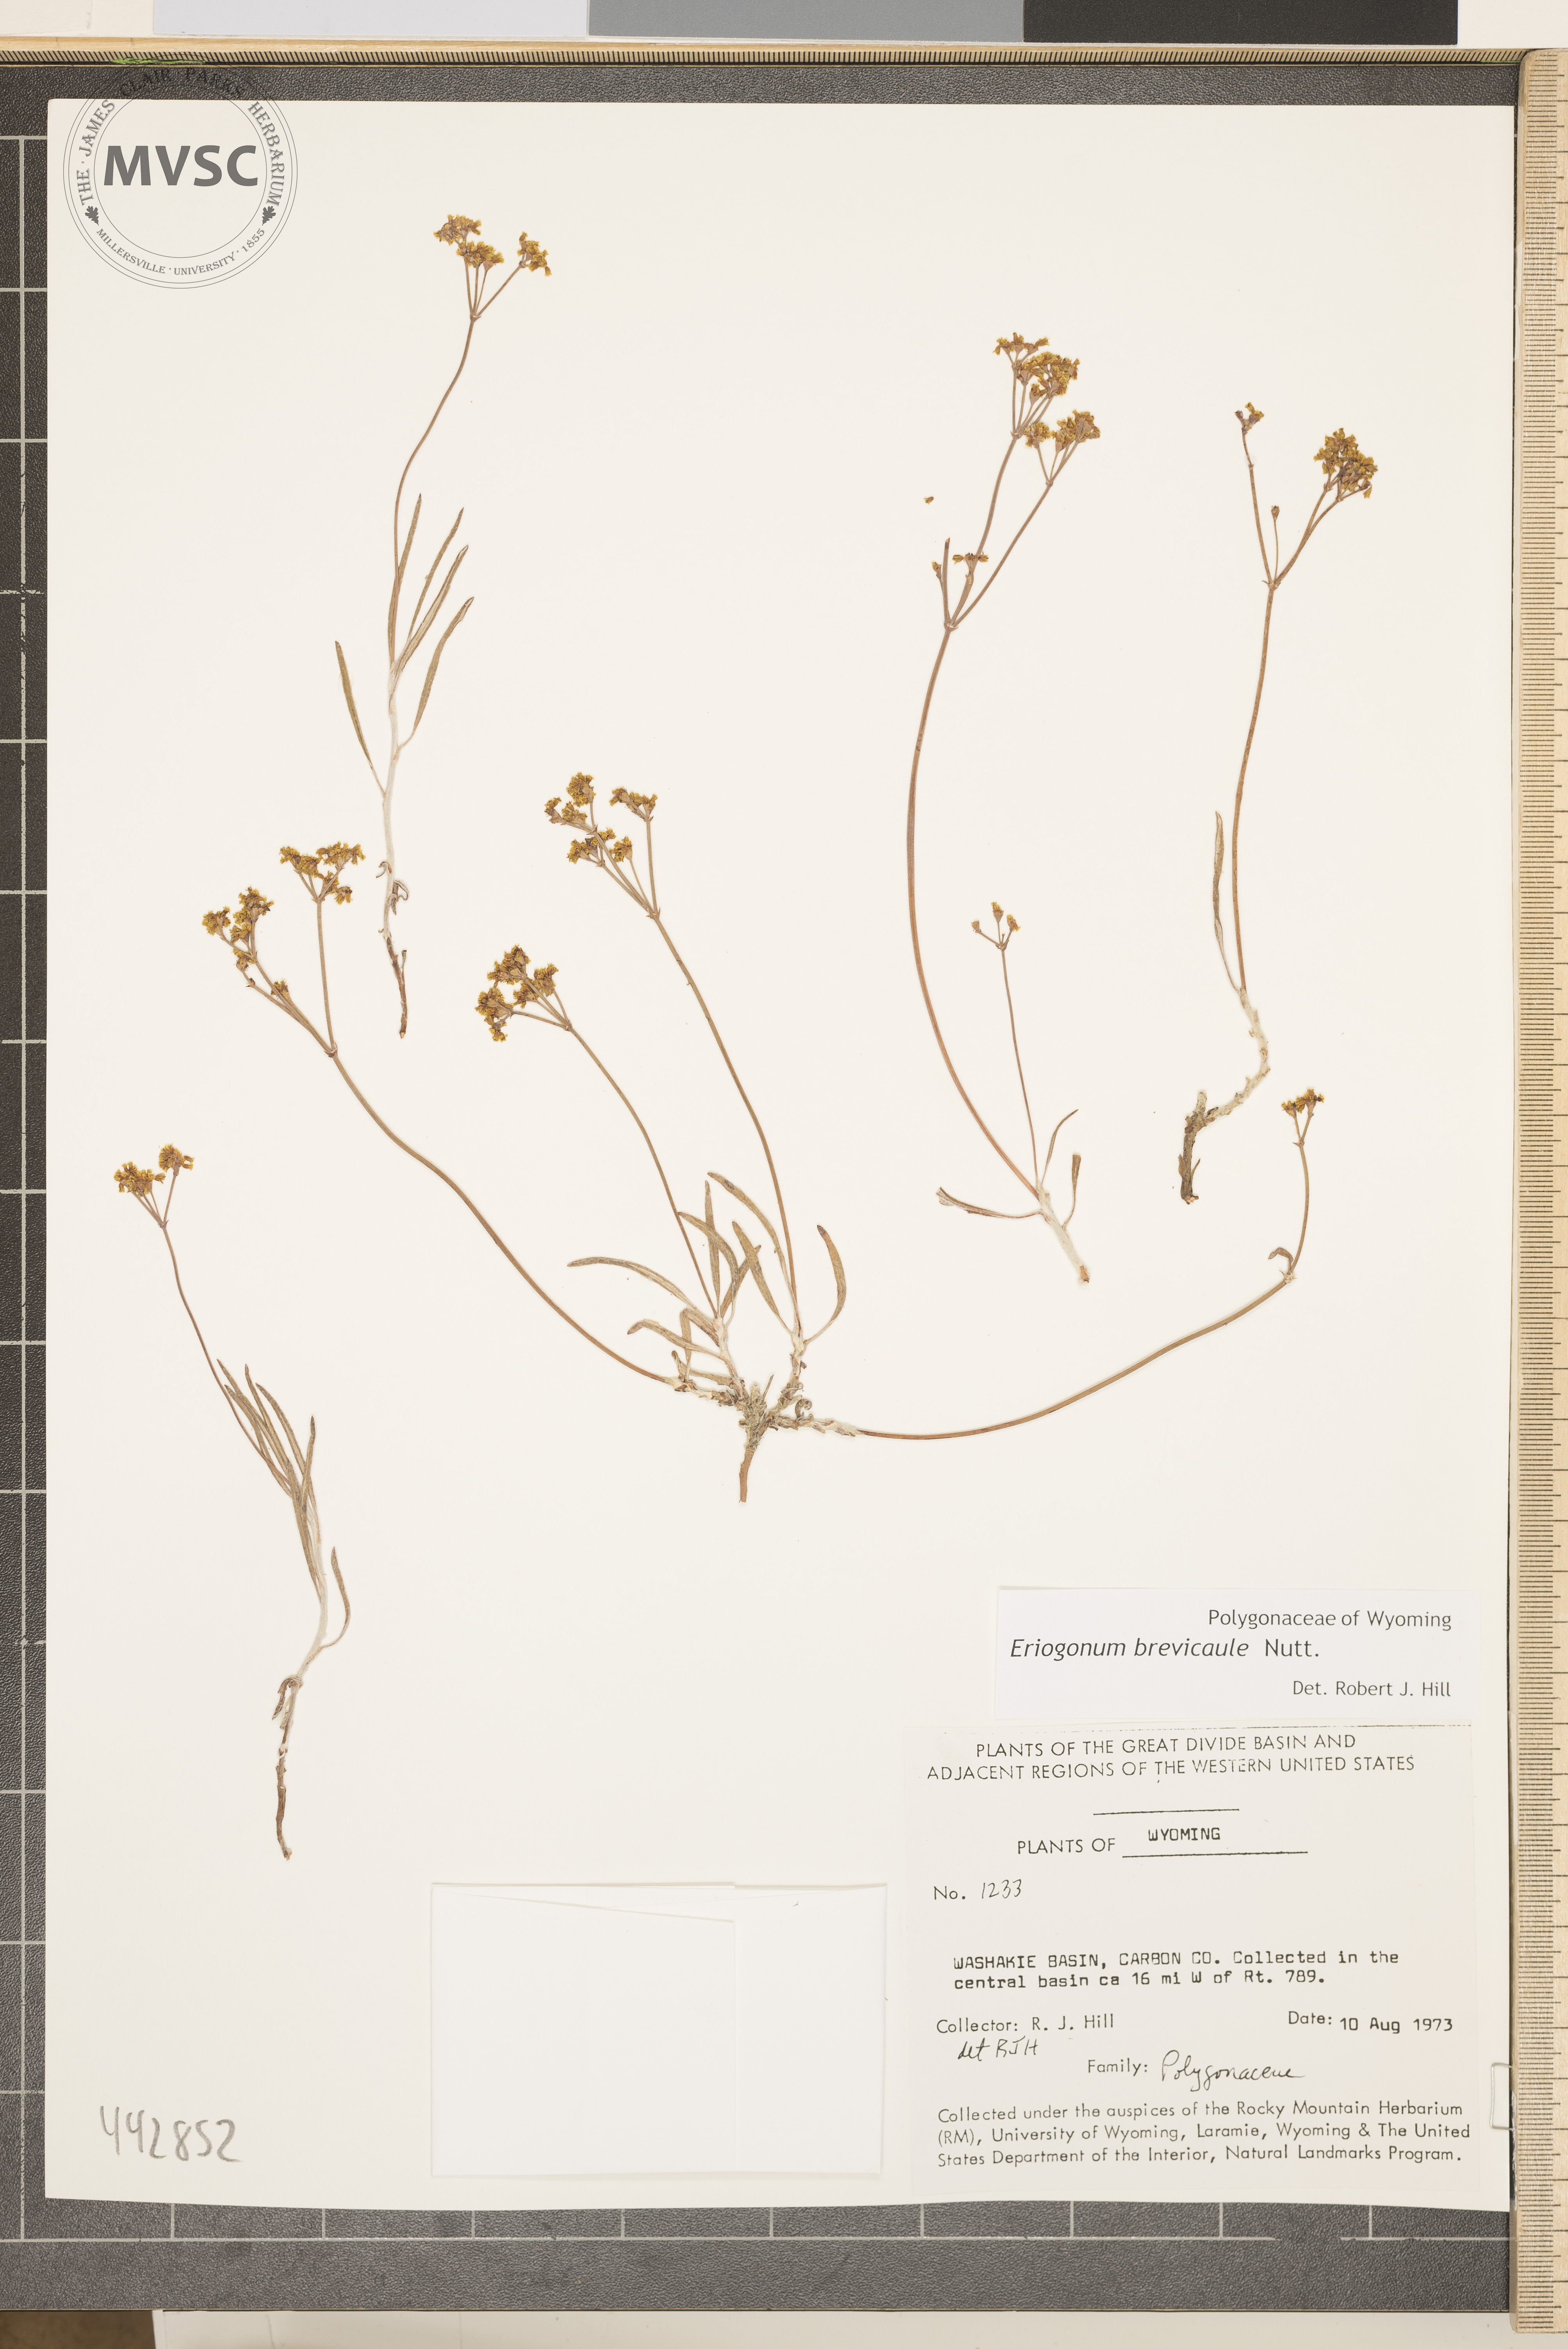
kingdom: Plantae
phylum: Tracheophyta
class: Magnoliopsida
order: Caryophyllales
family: Polygonaceae
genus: Eriogonum
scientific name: Eriogonum brevicaule
